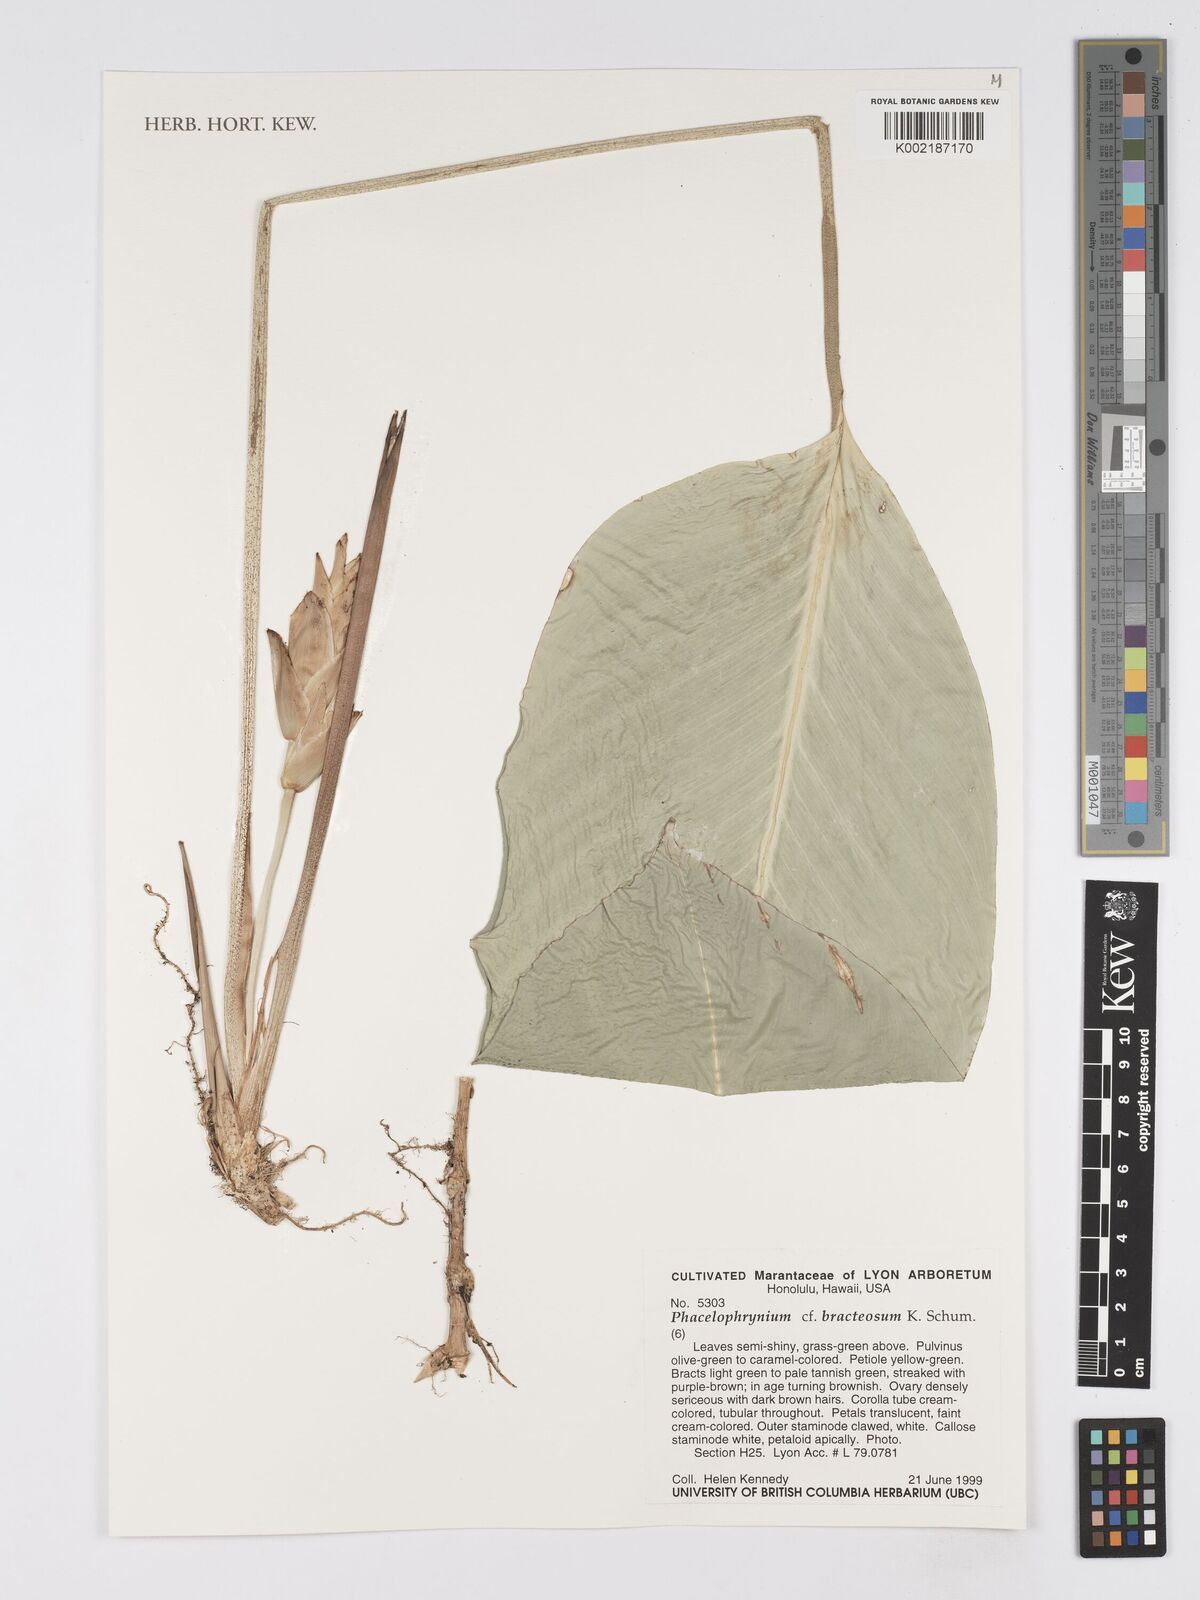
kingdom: Plantae
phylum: Tracheophyta
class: Liliopsida
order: Zingiberales
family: Marantaceae
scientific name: Marantaceae
